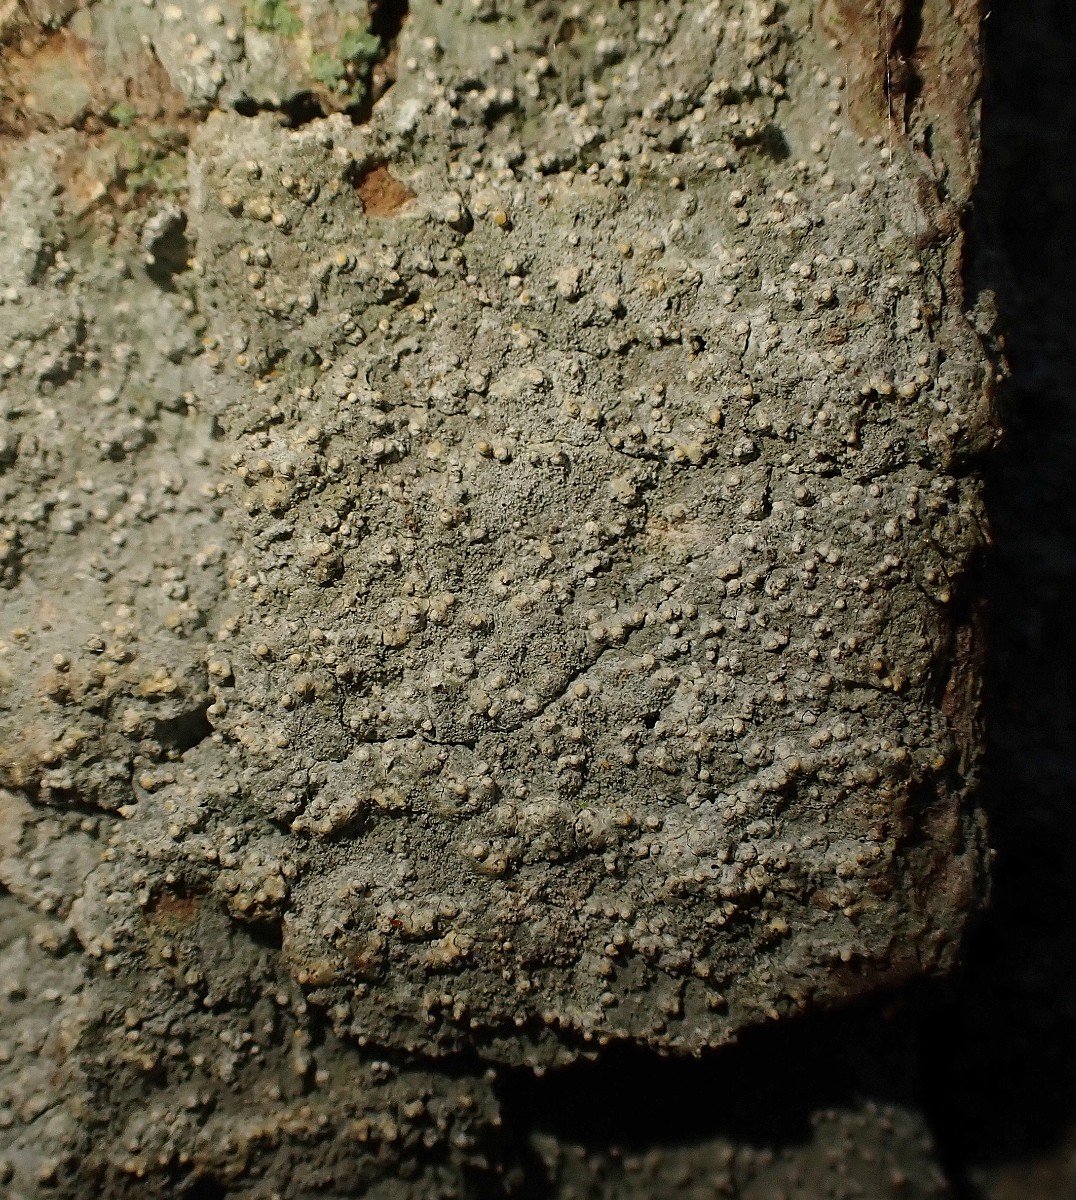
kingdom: Fungi
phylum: Ascomycota
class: Arthoniomycetes
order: Arthoniales
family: Roccellaceae
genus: Lecanactis
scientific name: Lecanactis abietina
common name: grå dugskivelav
